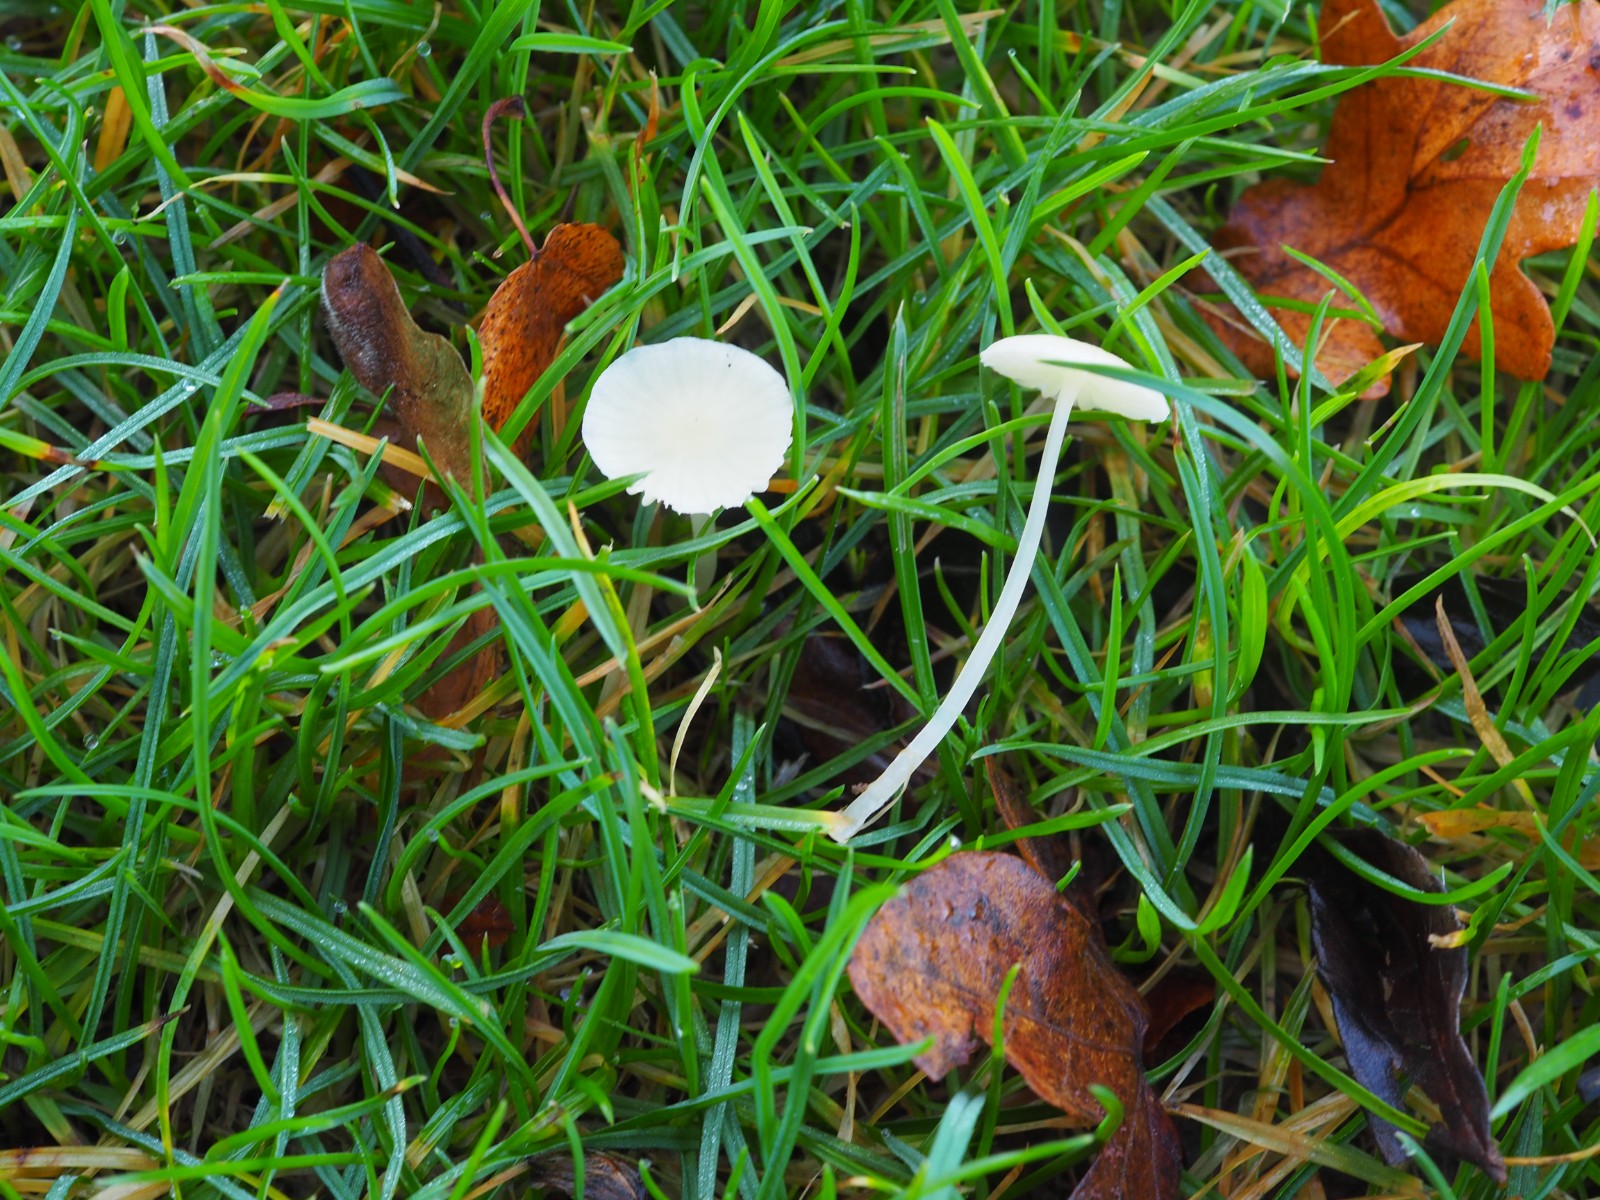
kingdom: Fungi
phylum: Basidiomycota
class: Agaricomycetes
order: Agaricales
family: Mycenaceae
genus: Atheniella
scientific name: Atheniella flavoalba
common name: gulhvid huesvamp
